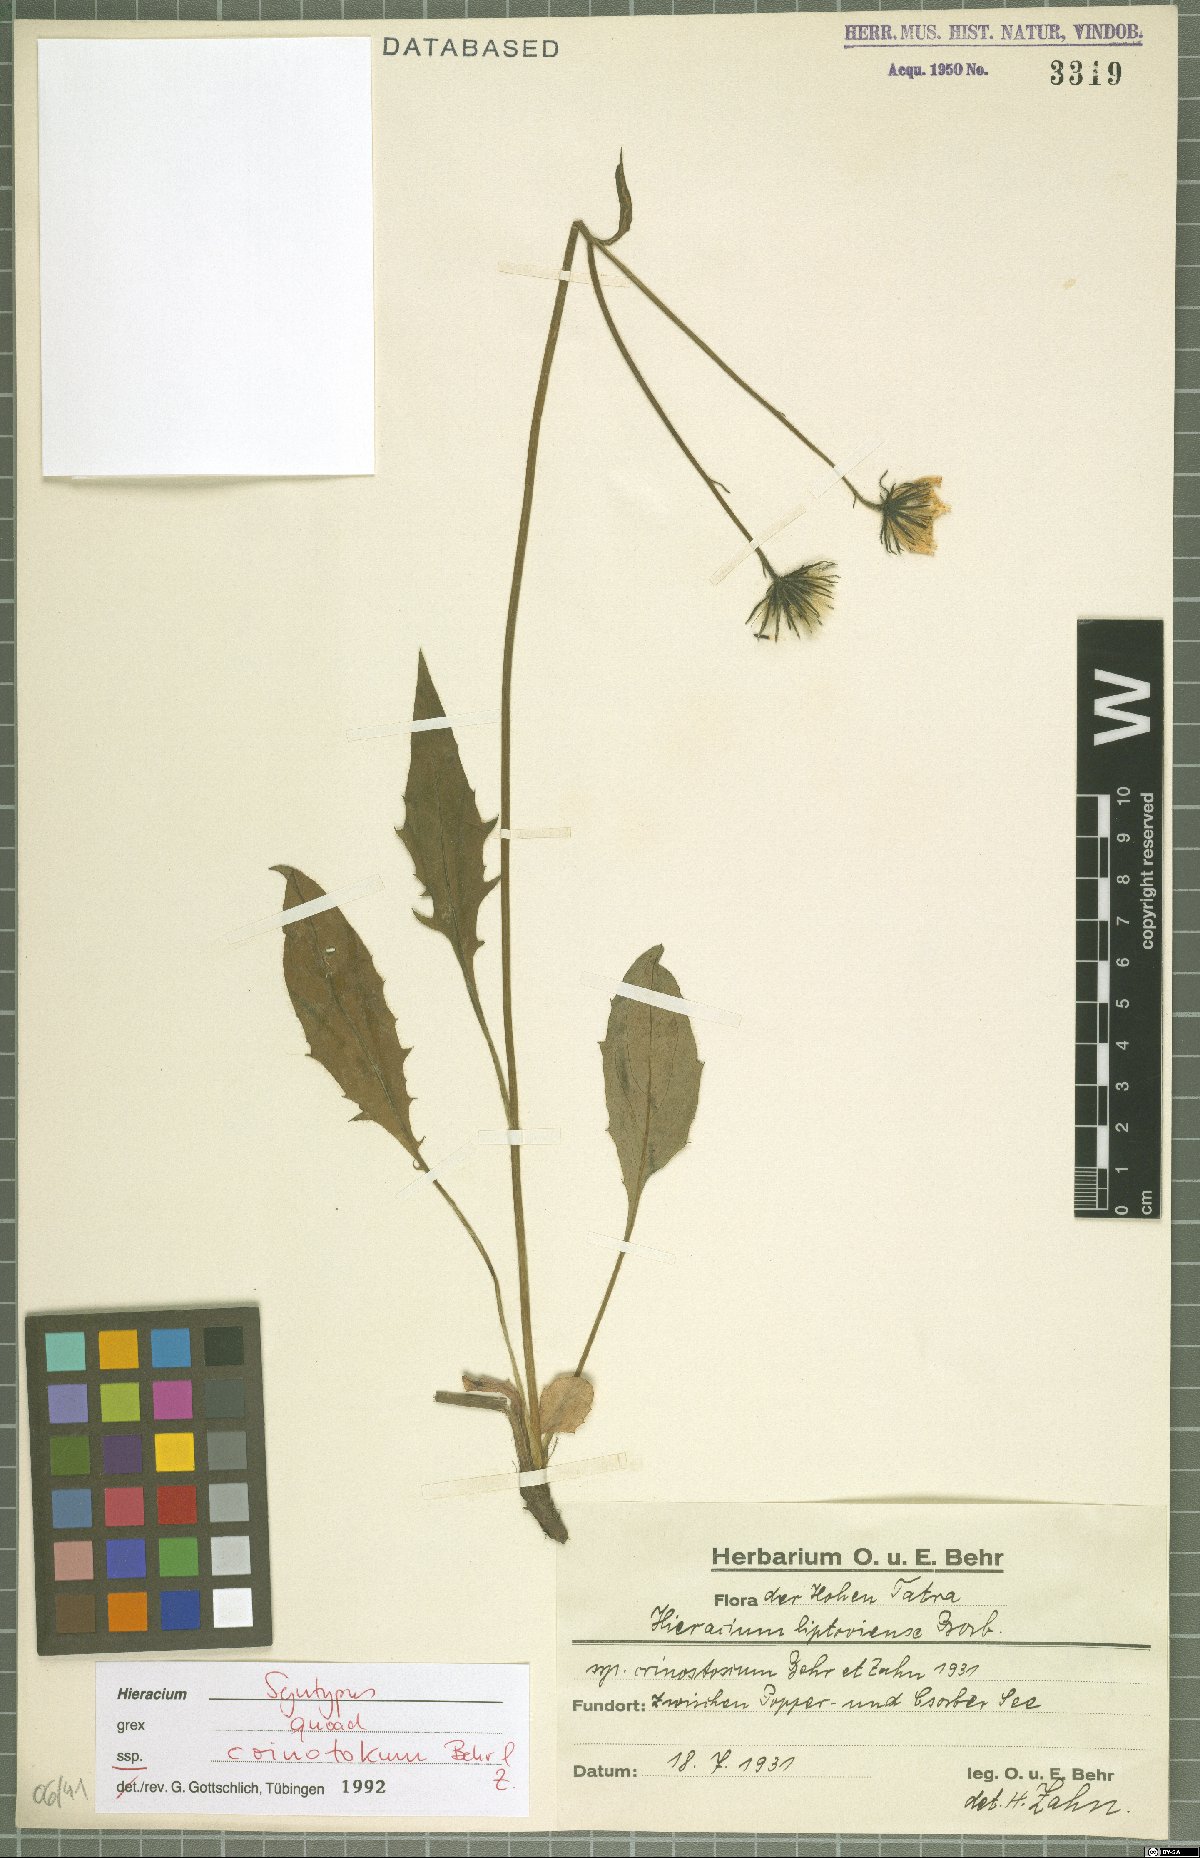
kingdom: Plantae
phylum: Tracheophyta
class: Magnoliopsida
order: Asterales
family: Asteraceae
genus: Hieracium
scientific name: Hieracium liptoviense
